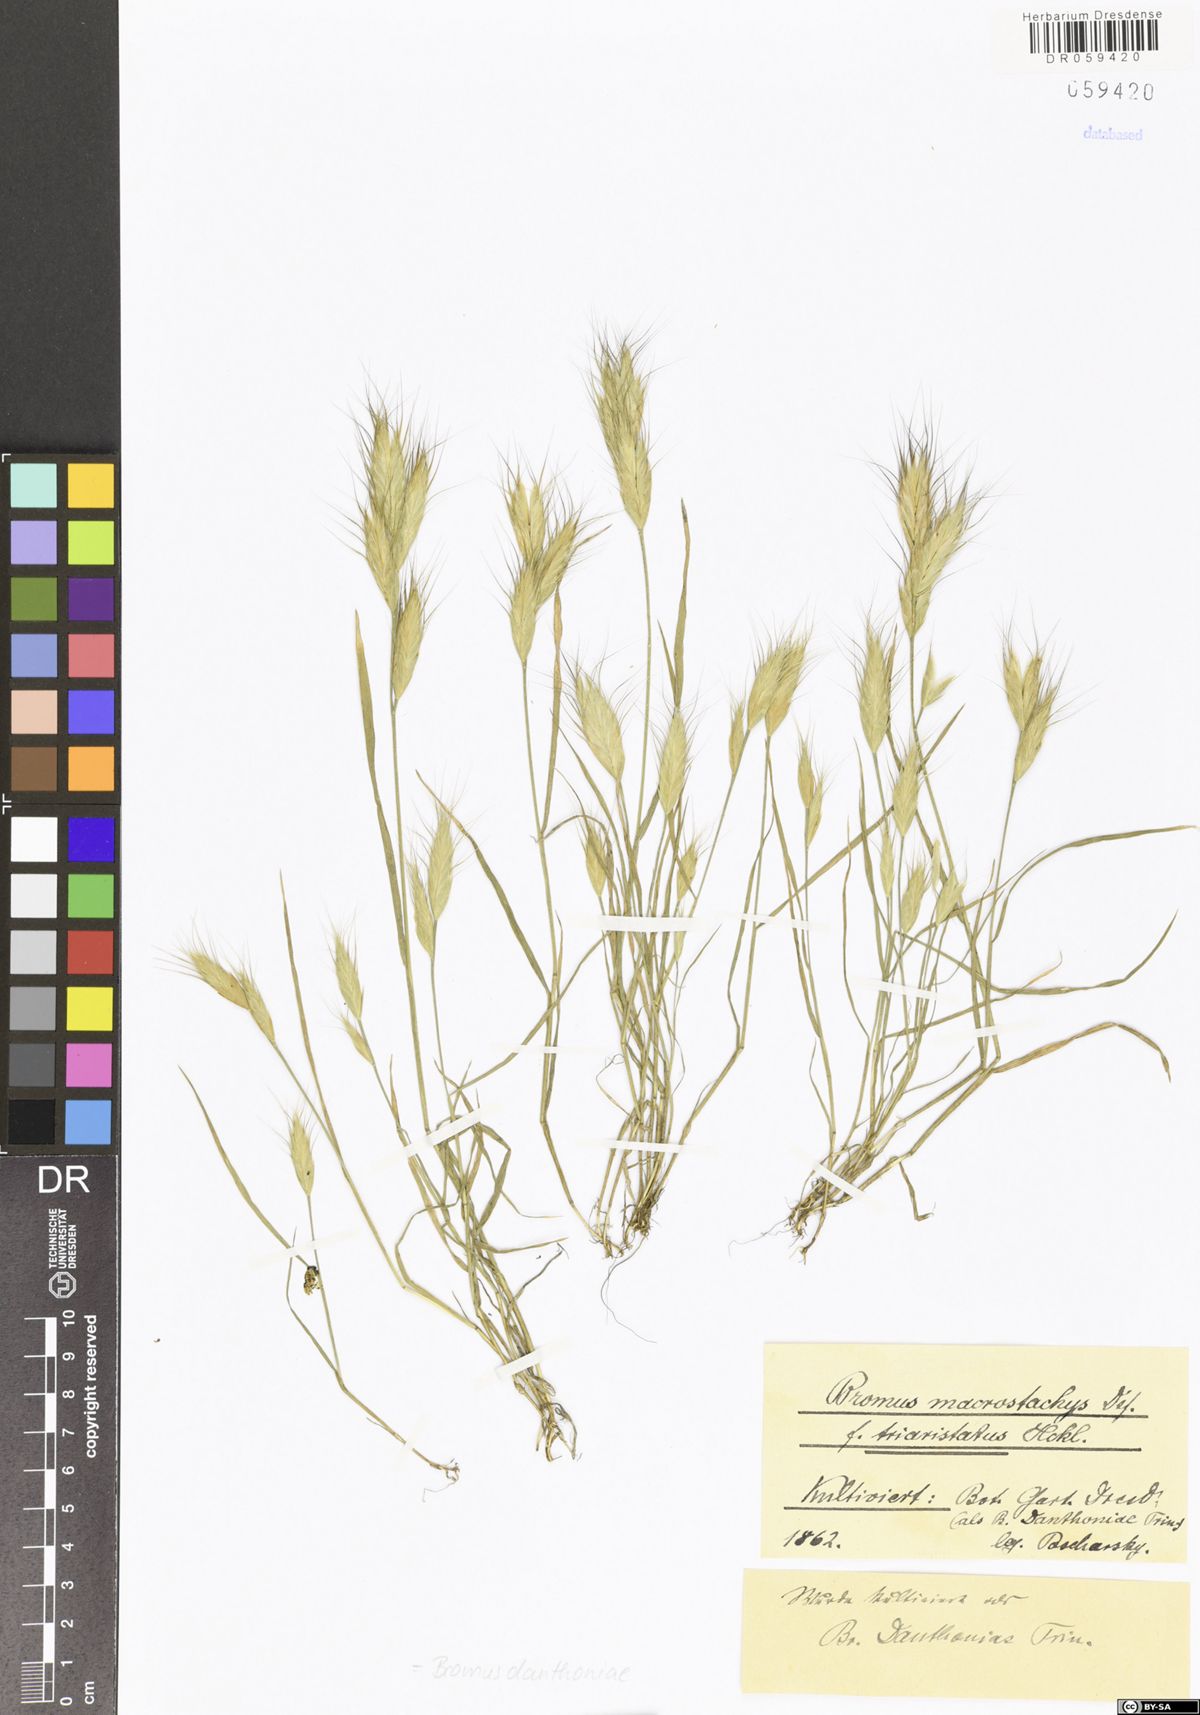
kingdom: Plantae
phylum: Tracheophyta
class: Liliopsida
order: Poales
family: Poaceae
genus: Bromus
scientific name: Bromus danthoniae
